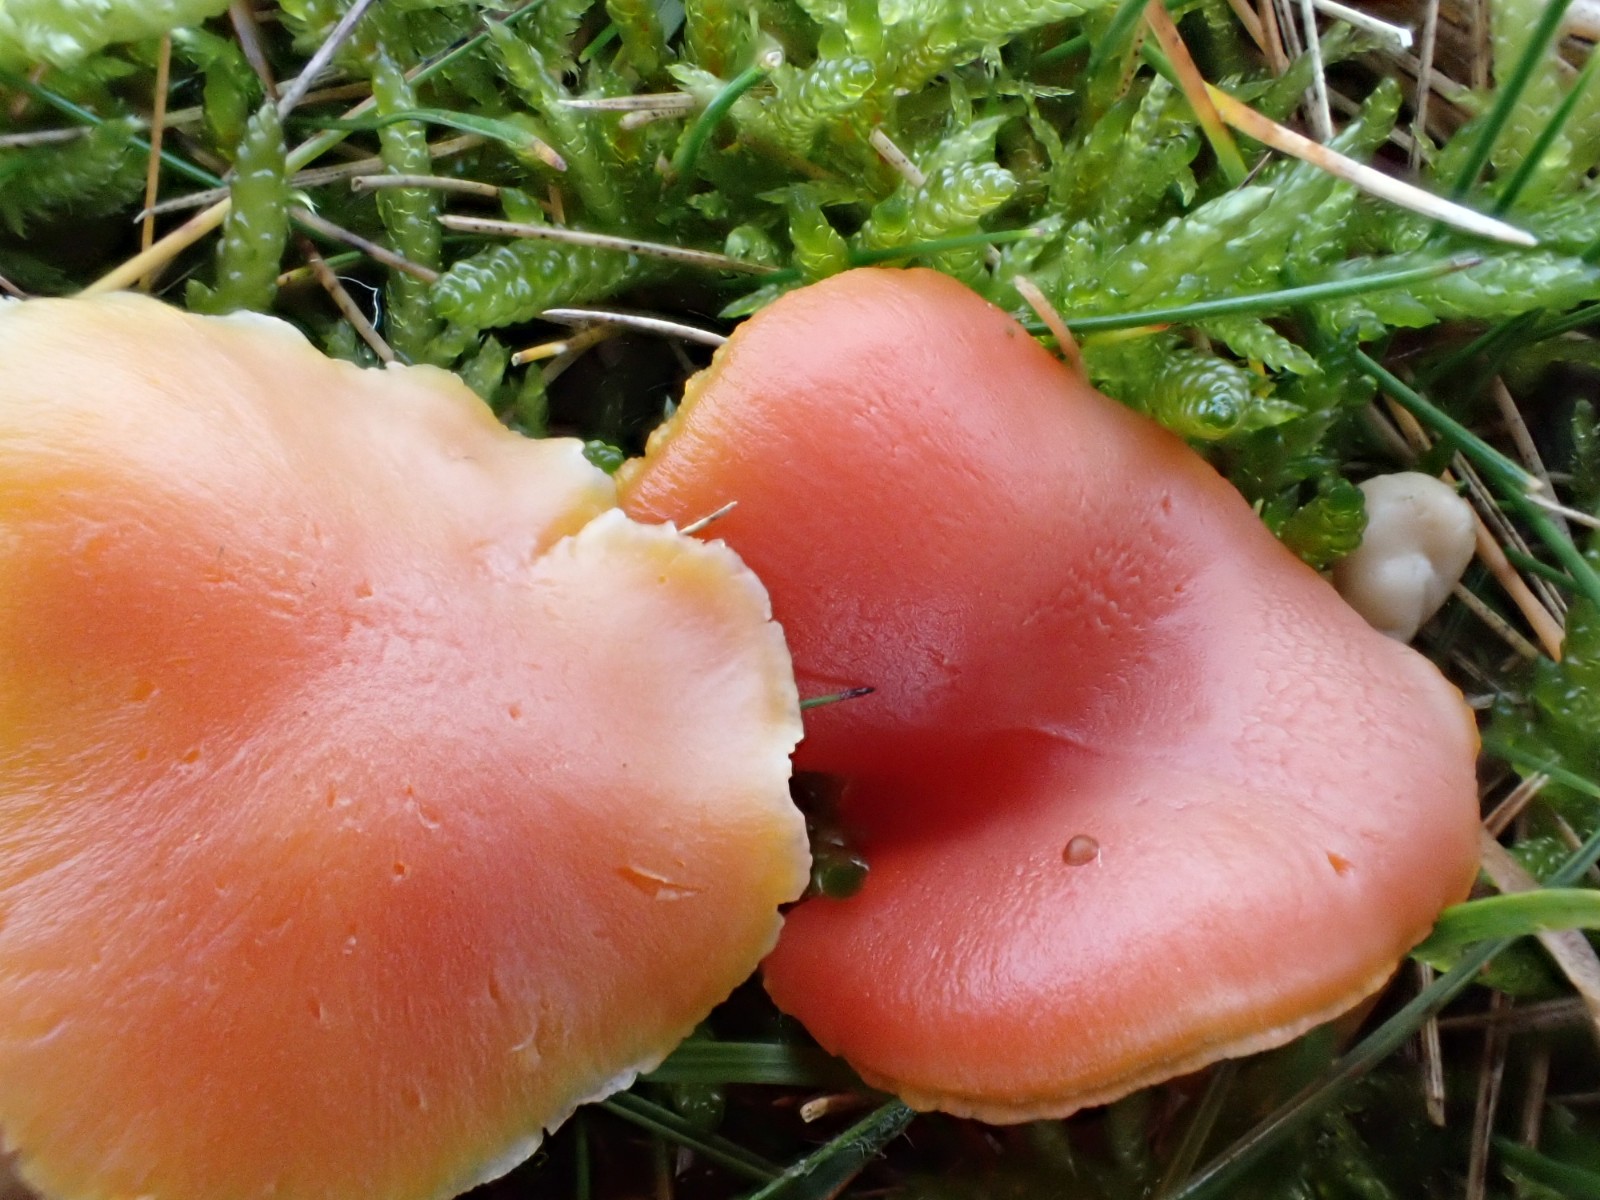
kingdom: Fungi
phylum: Basidiomycota
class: Agaricomycetes
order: Agaricales
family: Hygrophoraceae
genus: Hygrocybe
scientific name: Hygrocybe reidii
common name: honning-vokshat
